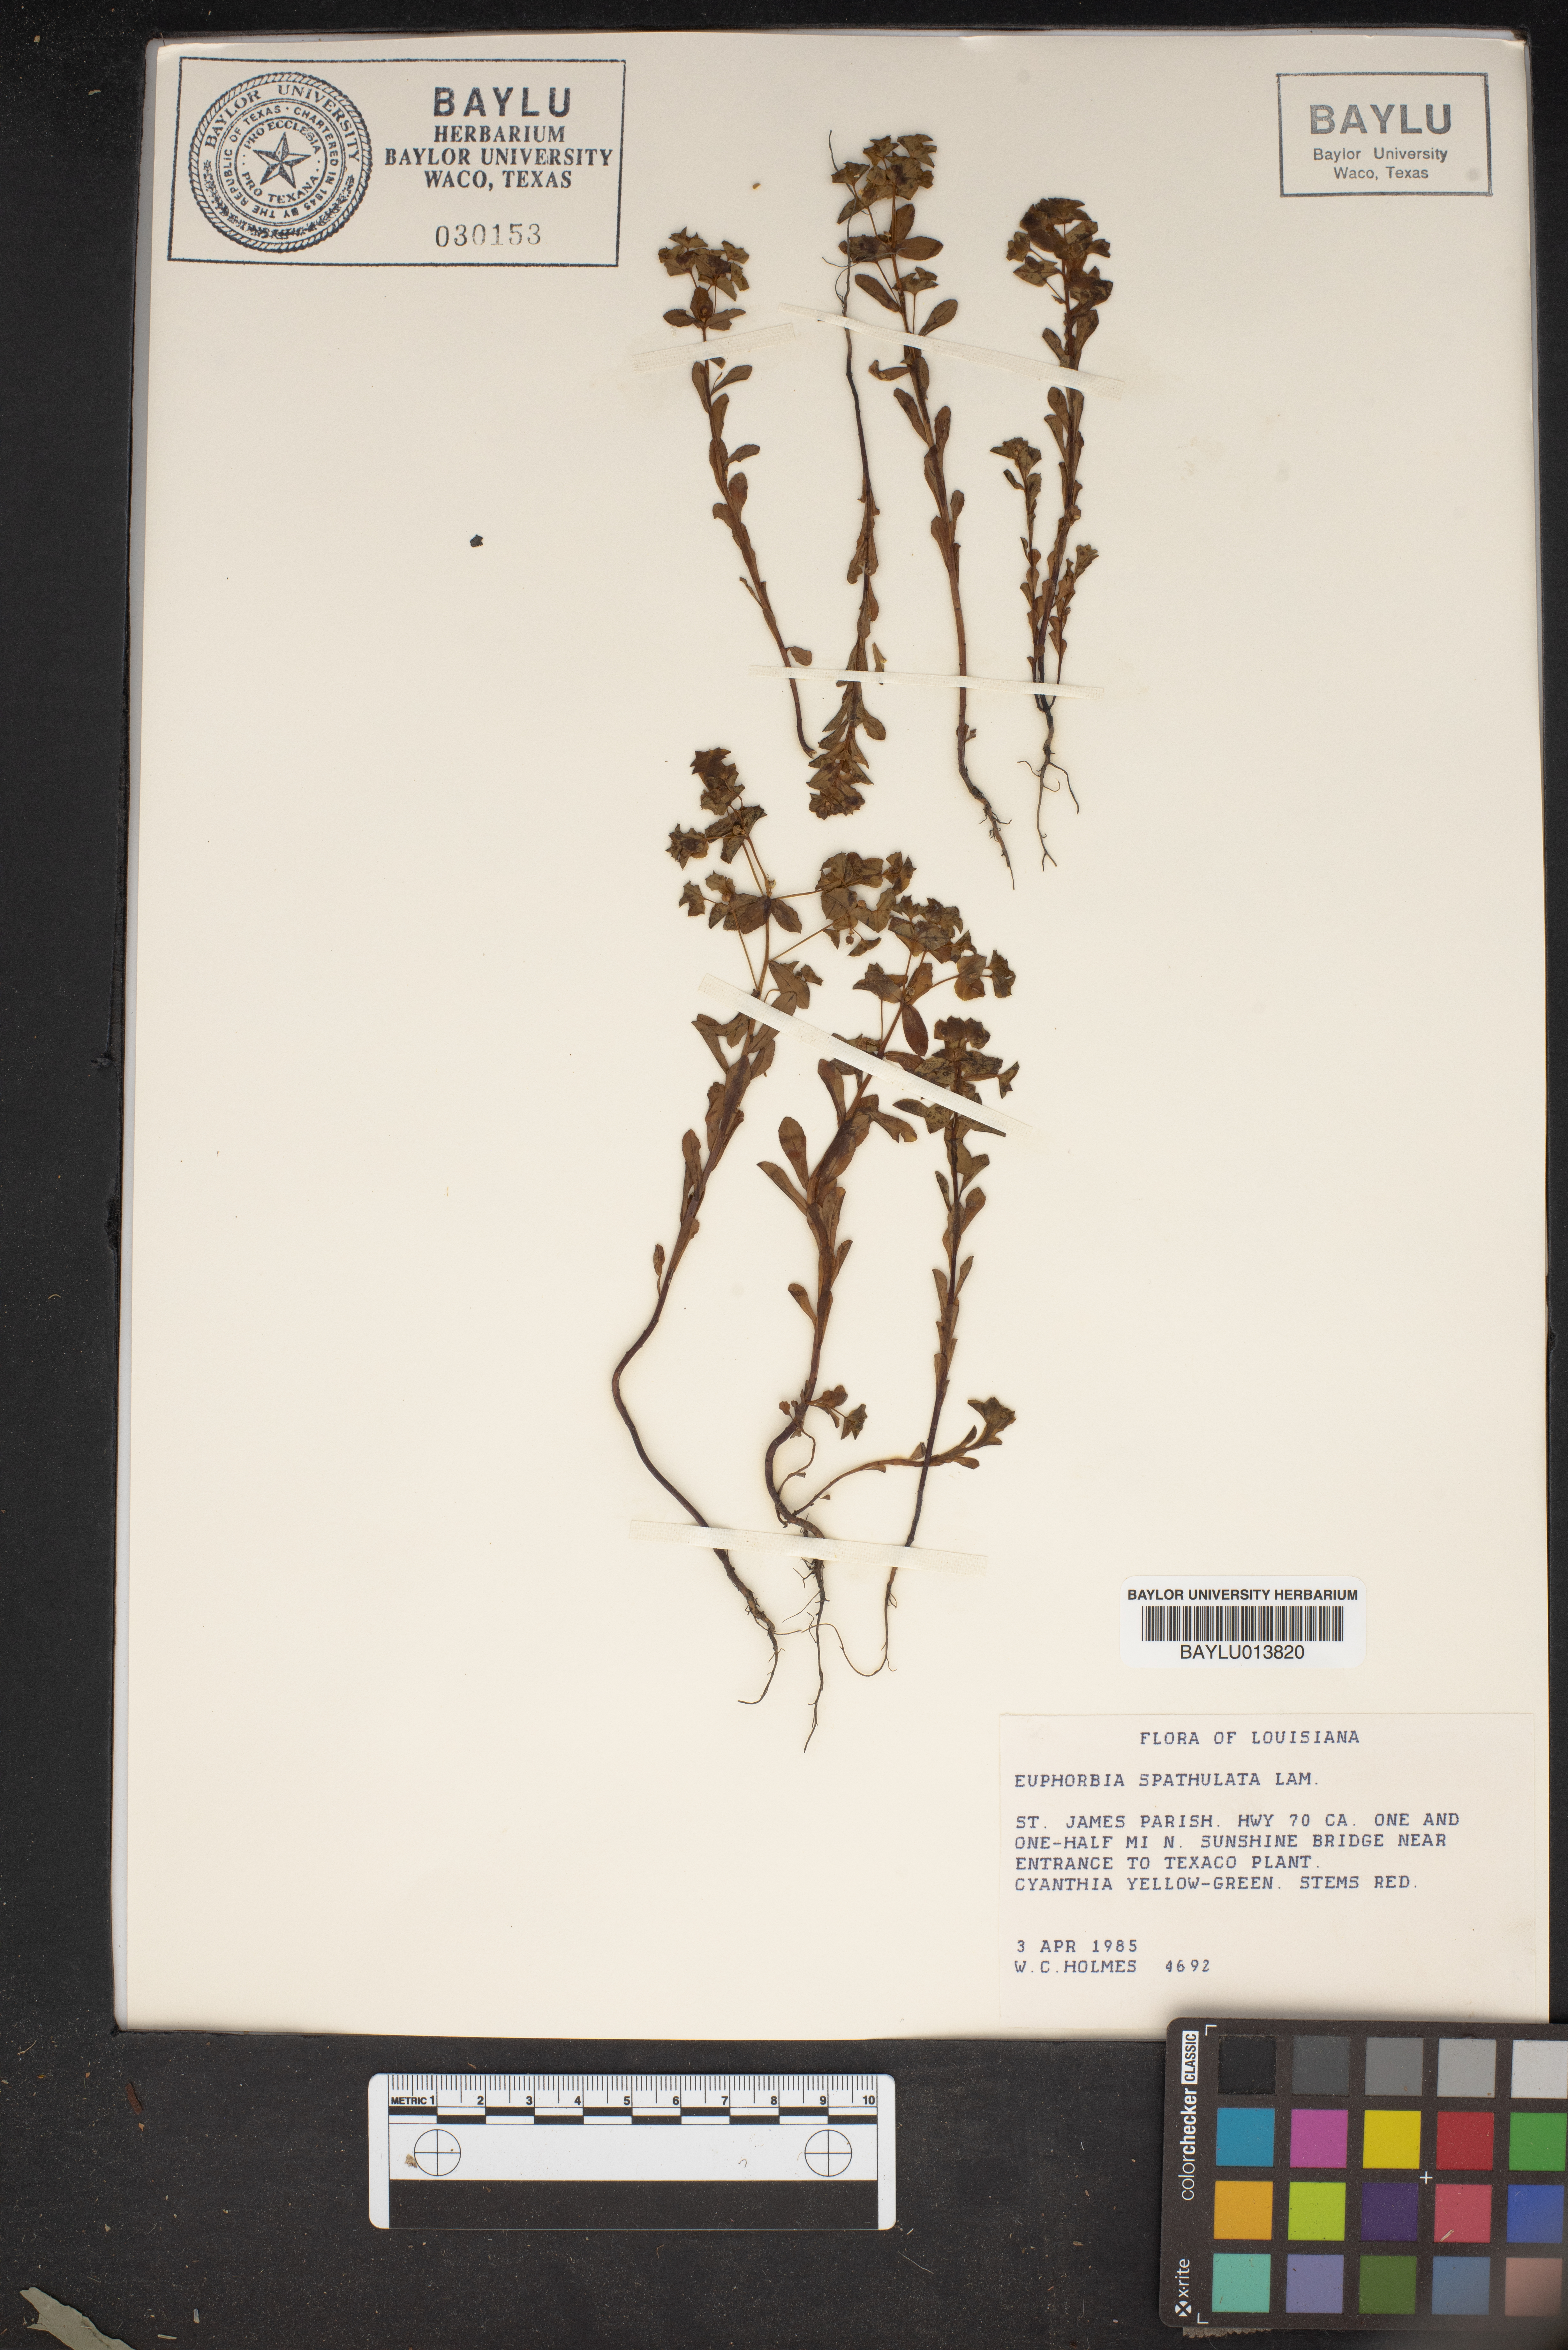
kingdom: Plantae
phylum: Tracheophyta
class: Magnoliopsida
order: Malpighiales
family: Euphorbiaceae
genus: Euphorbia
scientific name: Euphorbia spathulata
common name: Blunt spurge
